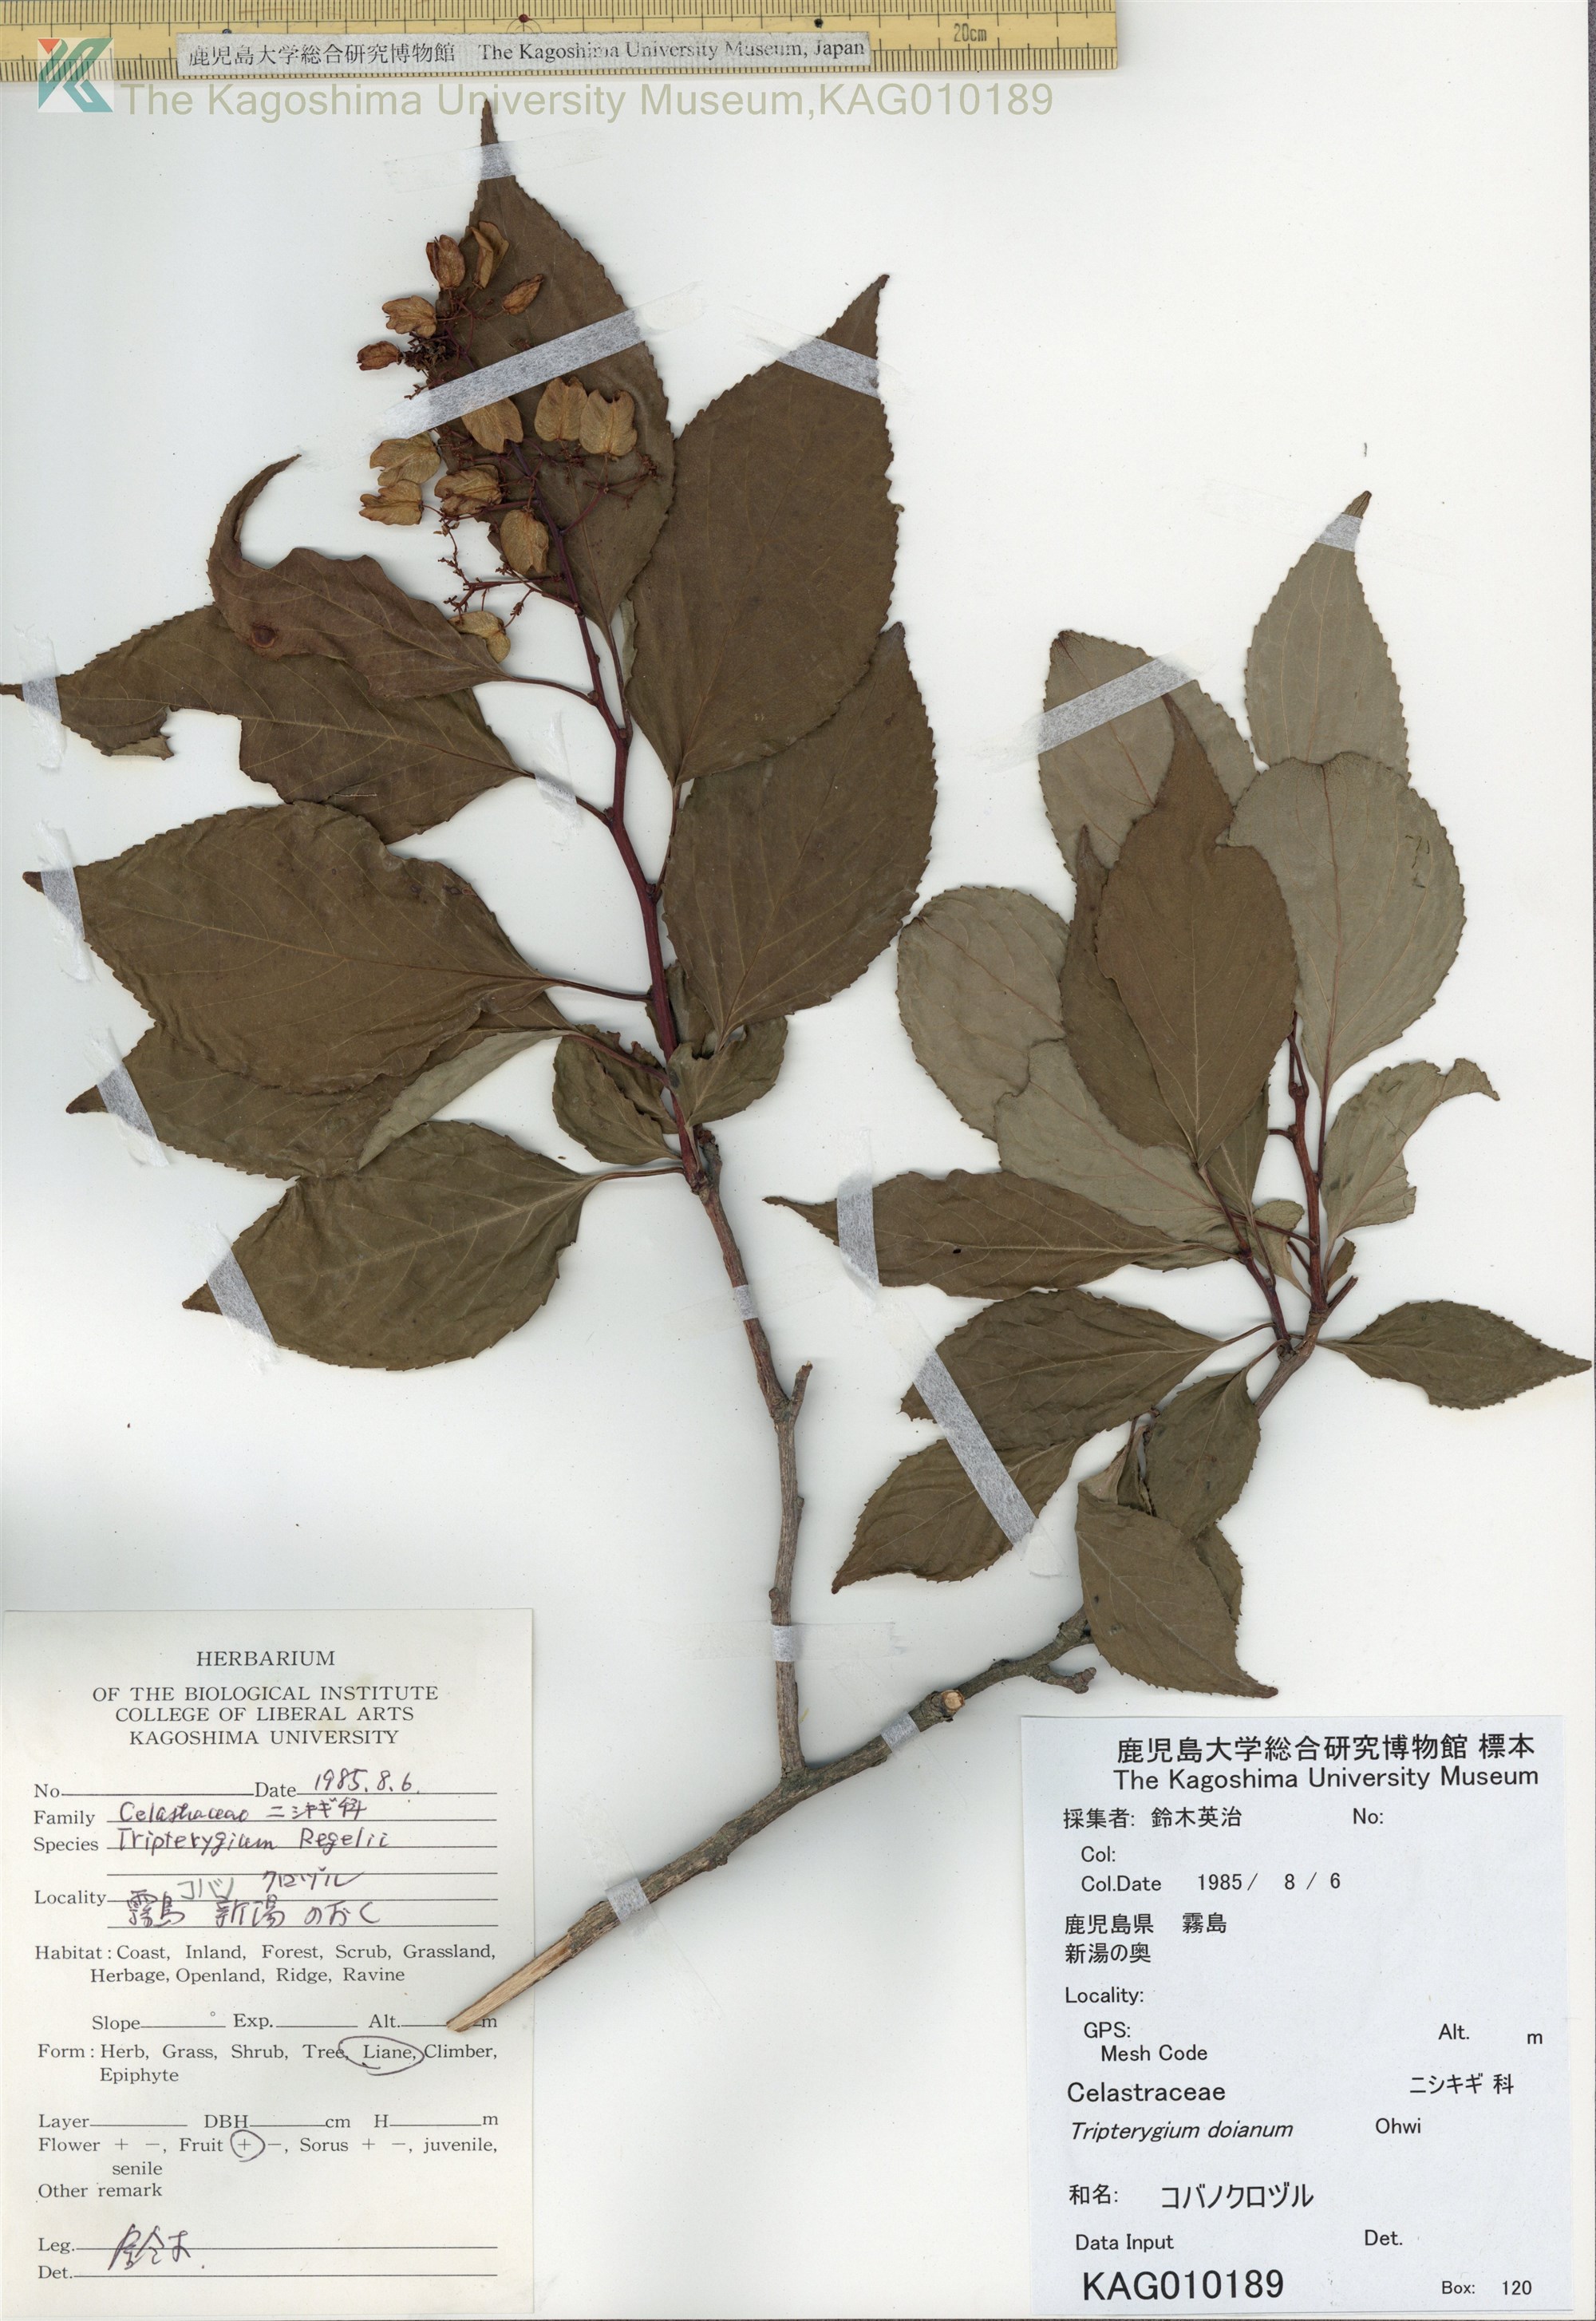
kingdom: Plantae
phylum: Tracheophyta
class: Magnoliopsida
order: Celastrales
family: Celastraceae
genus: Tripterygium
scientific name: Tripterygium doianum
